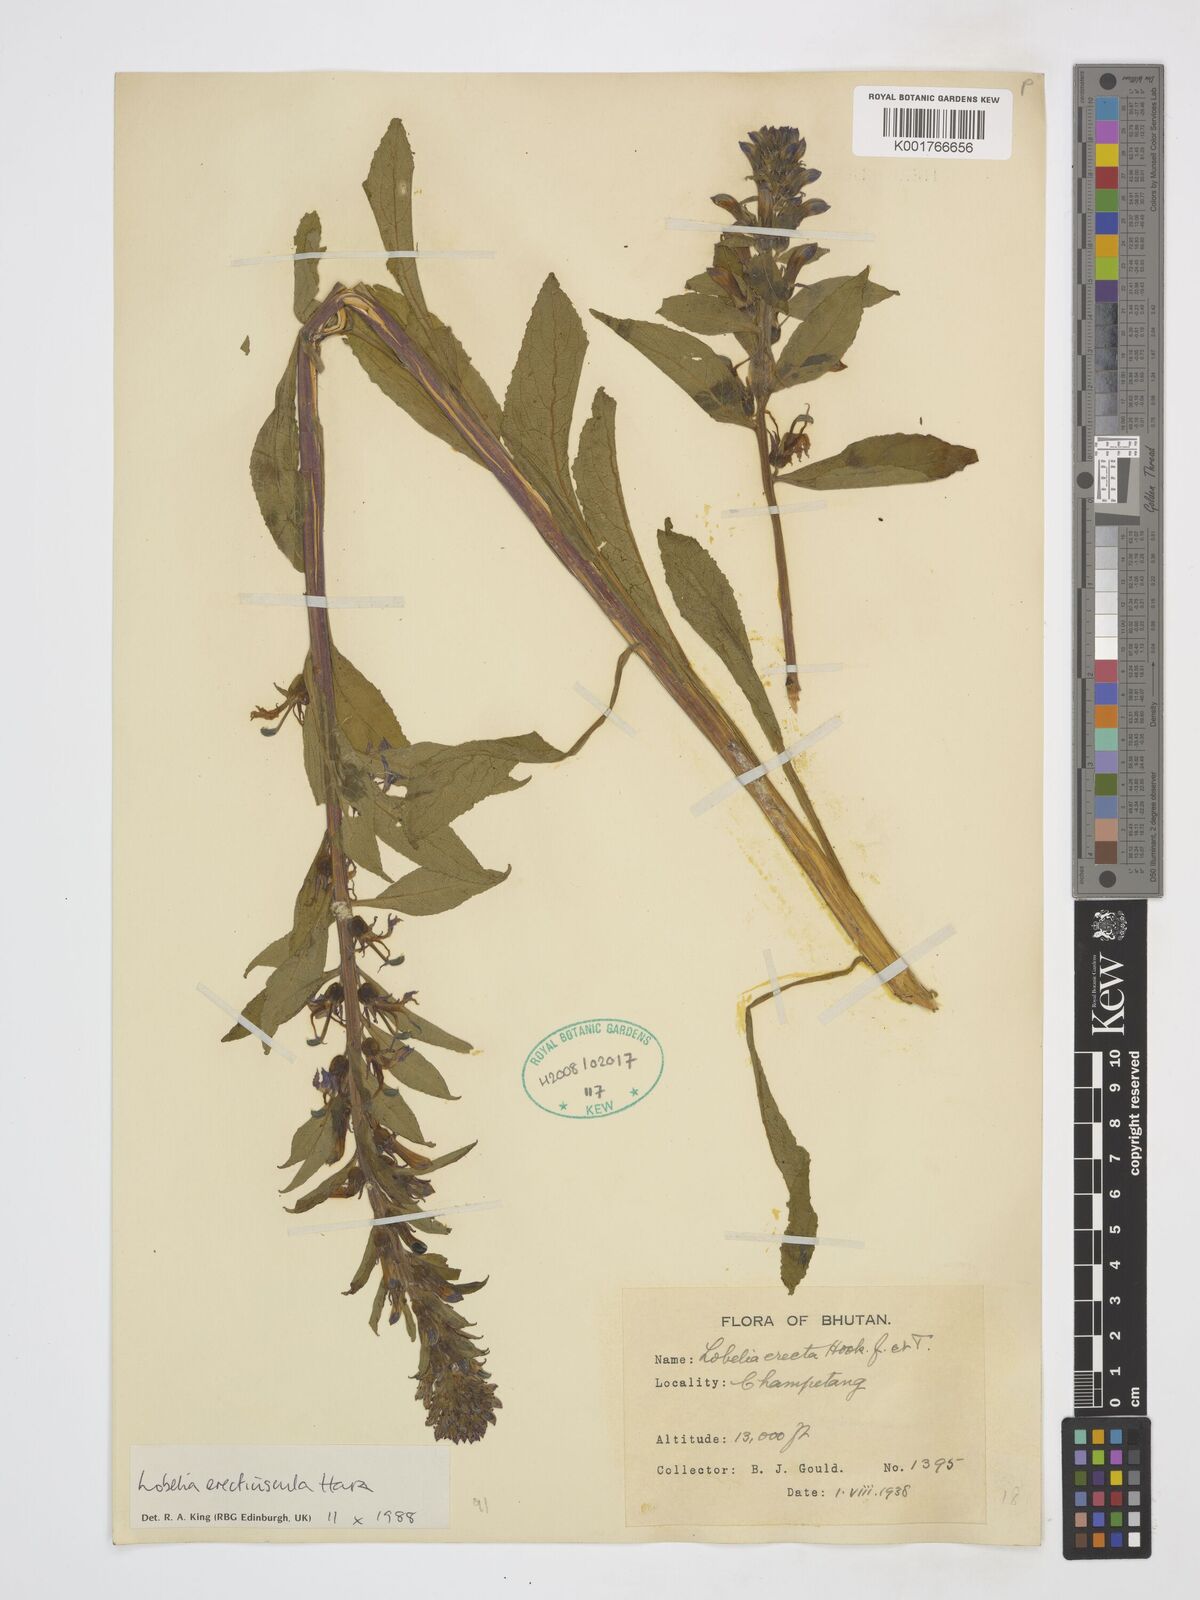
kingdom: Plantae
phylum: Tracheophyta
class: Magnoliopsida
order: Asterales
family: Campanulaceae
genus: Lobelia
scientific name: Lobelia erectiuscula
